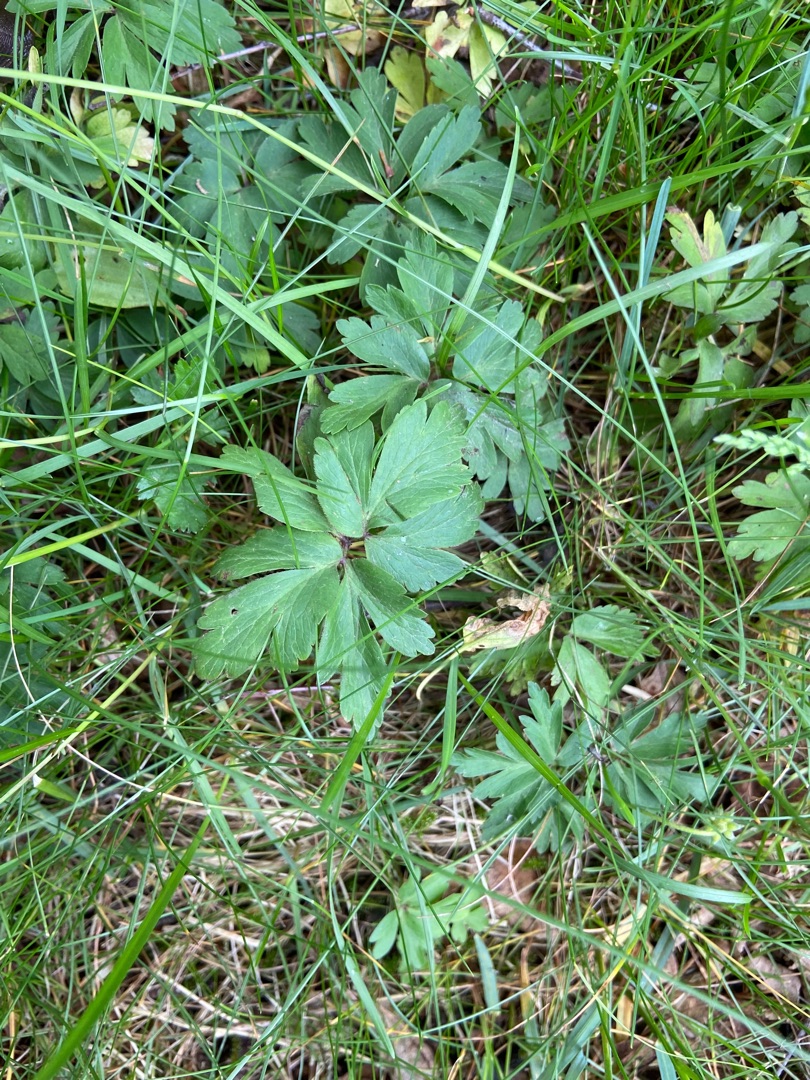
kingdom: Plantae
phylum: Tracheophyta
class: Magnoliopsida
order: Ranunculales
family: Ranunculaceae
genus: Anemone
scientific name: Anemone nemorosa
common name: Hvid anemone
